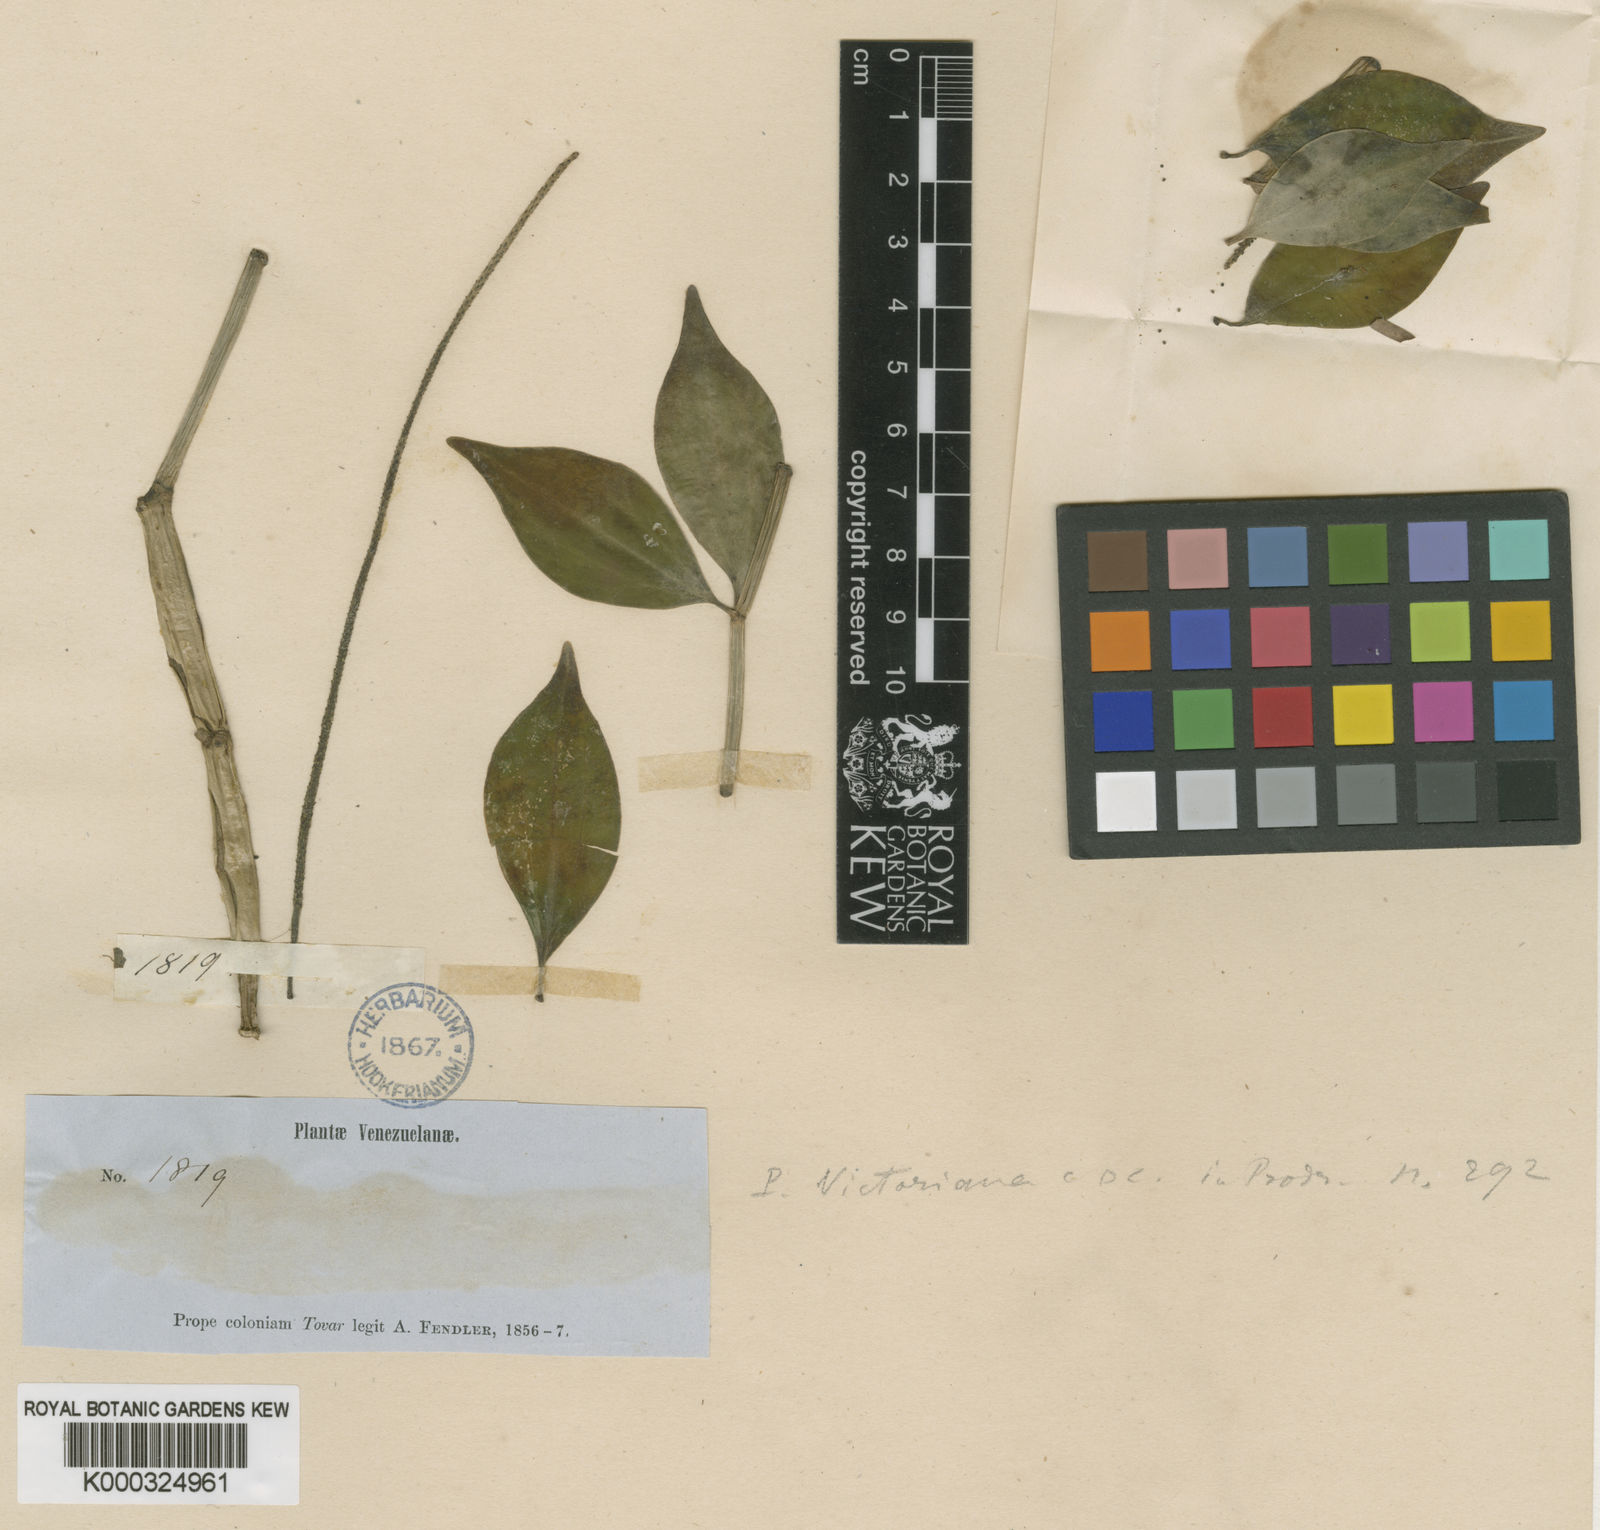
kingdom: Plantae
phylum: Tracheophyta
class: Magnoliopsida
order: Piperales
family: Piperaceae
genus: Peperomia
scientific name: Peperomia angustata
